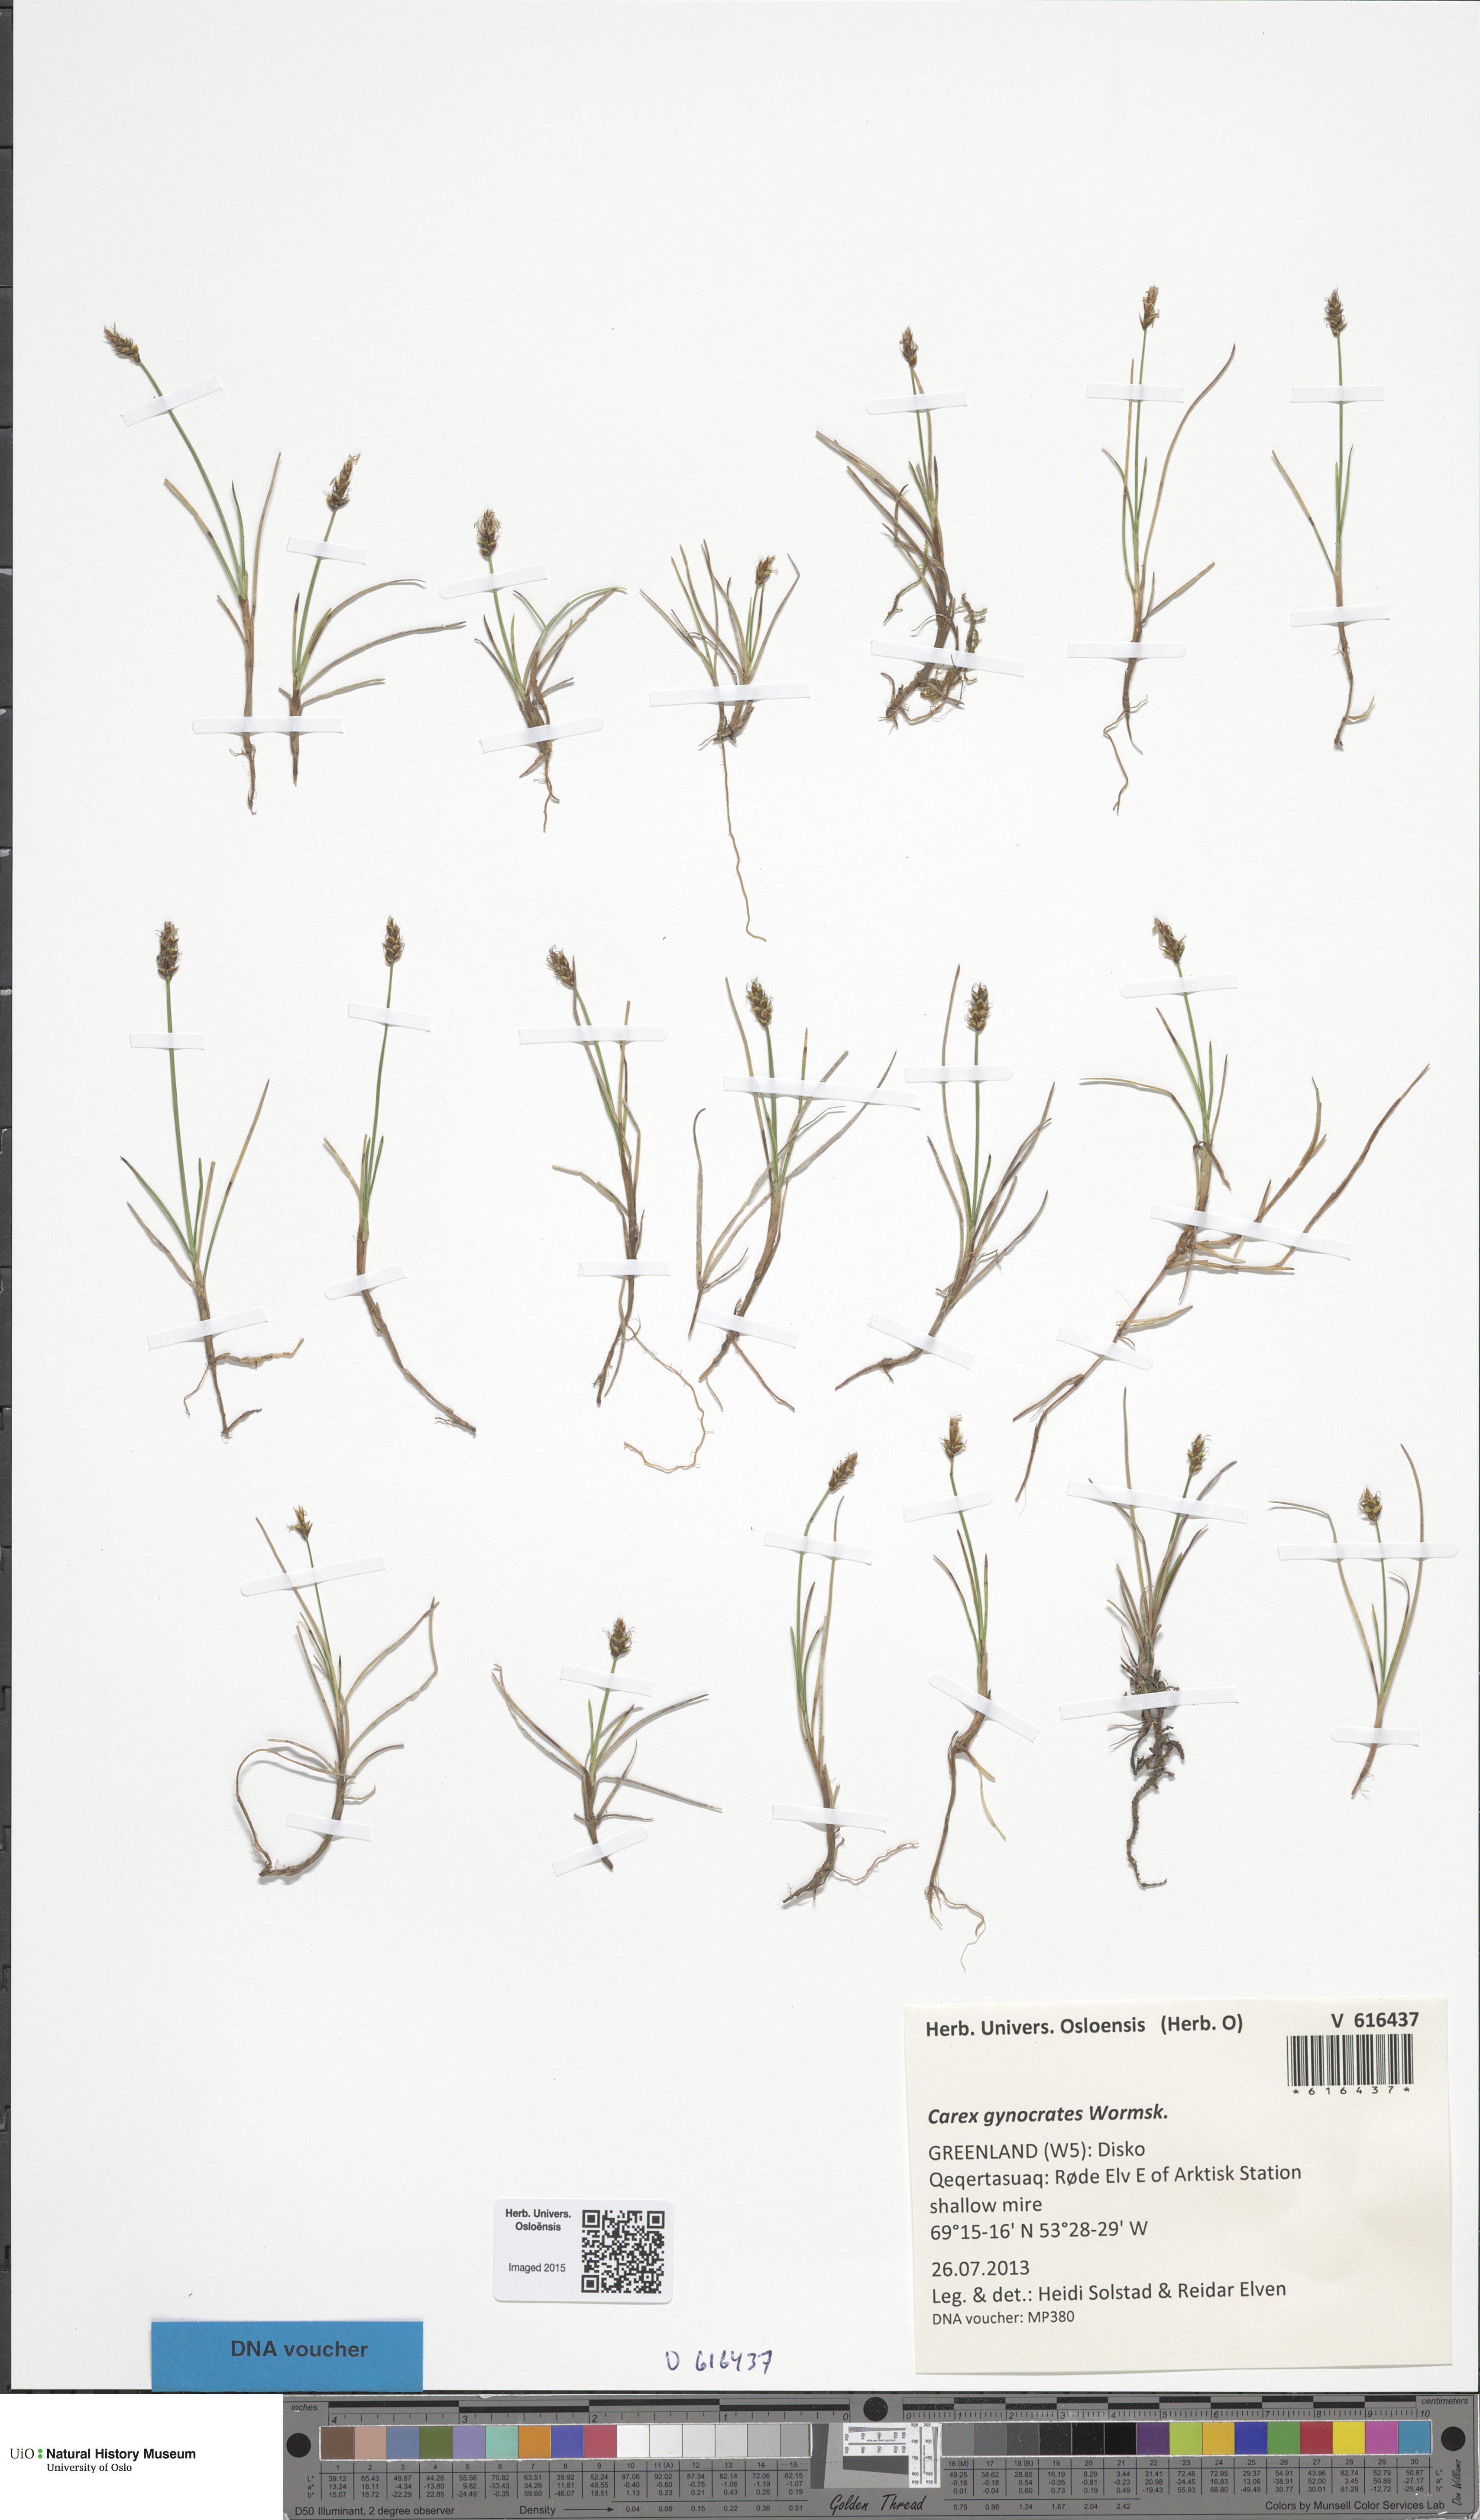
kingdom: Plantae
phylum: Tracheophyta
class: Liliopsida
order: Poales
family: Cyperaceae
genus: Carex
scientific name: Carex gynocrates
